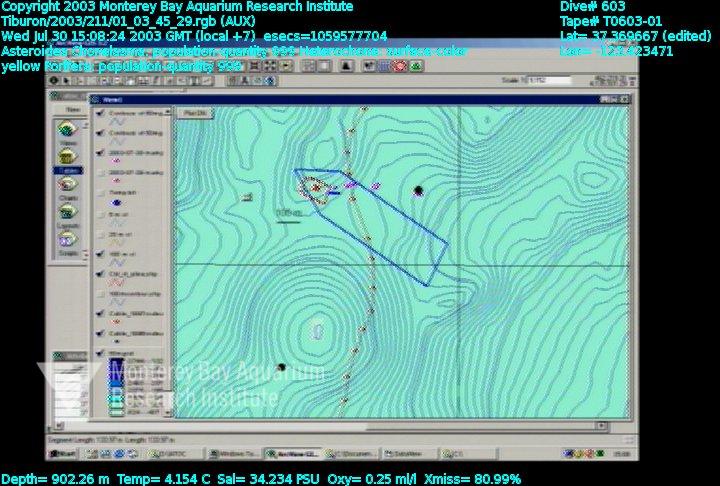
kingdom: Animalia
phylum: Porifera
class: Hexactinellida
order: Sceptrulophora
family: Aphrocallistidae
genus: Heterochone
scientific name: Heterochone
